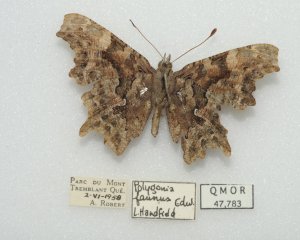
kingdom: Animalia
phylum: Arthropoda
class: Insecta
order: Lepidoptera
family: Nymphalidae
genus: Polygonia
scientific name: Polygonia faunus
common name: Green Comma
